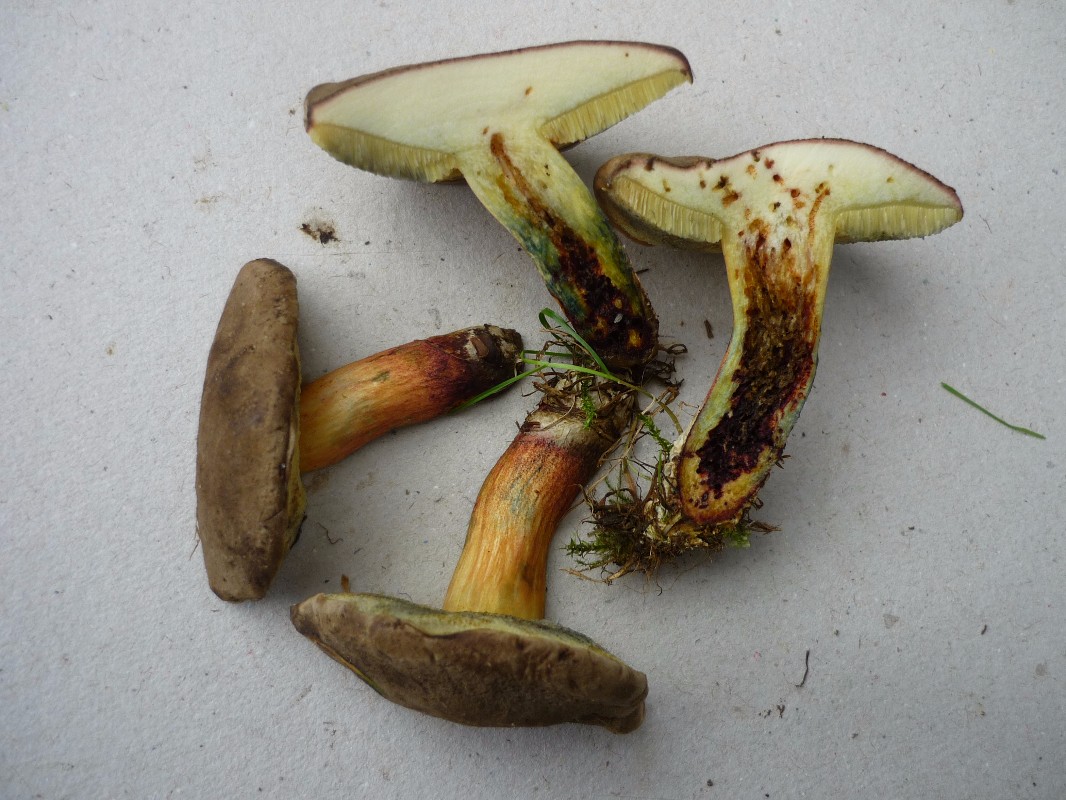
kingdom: Fungi
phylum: Basidiomycota
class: Agaricomycetes
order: Boletales
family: Boletaceae
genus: Xerocomellus
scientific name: Xerocomellus chrysenteron
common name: rødsprukken rørhat
